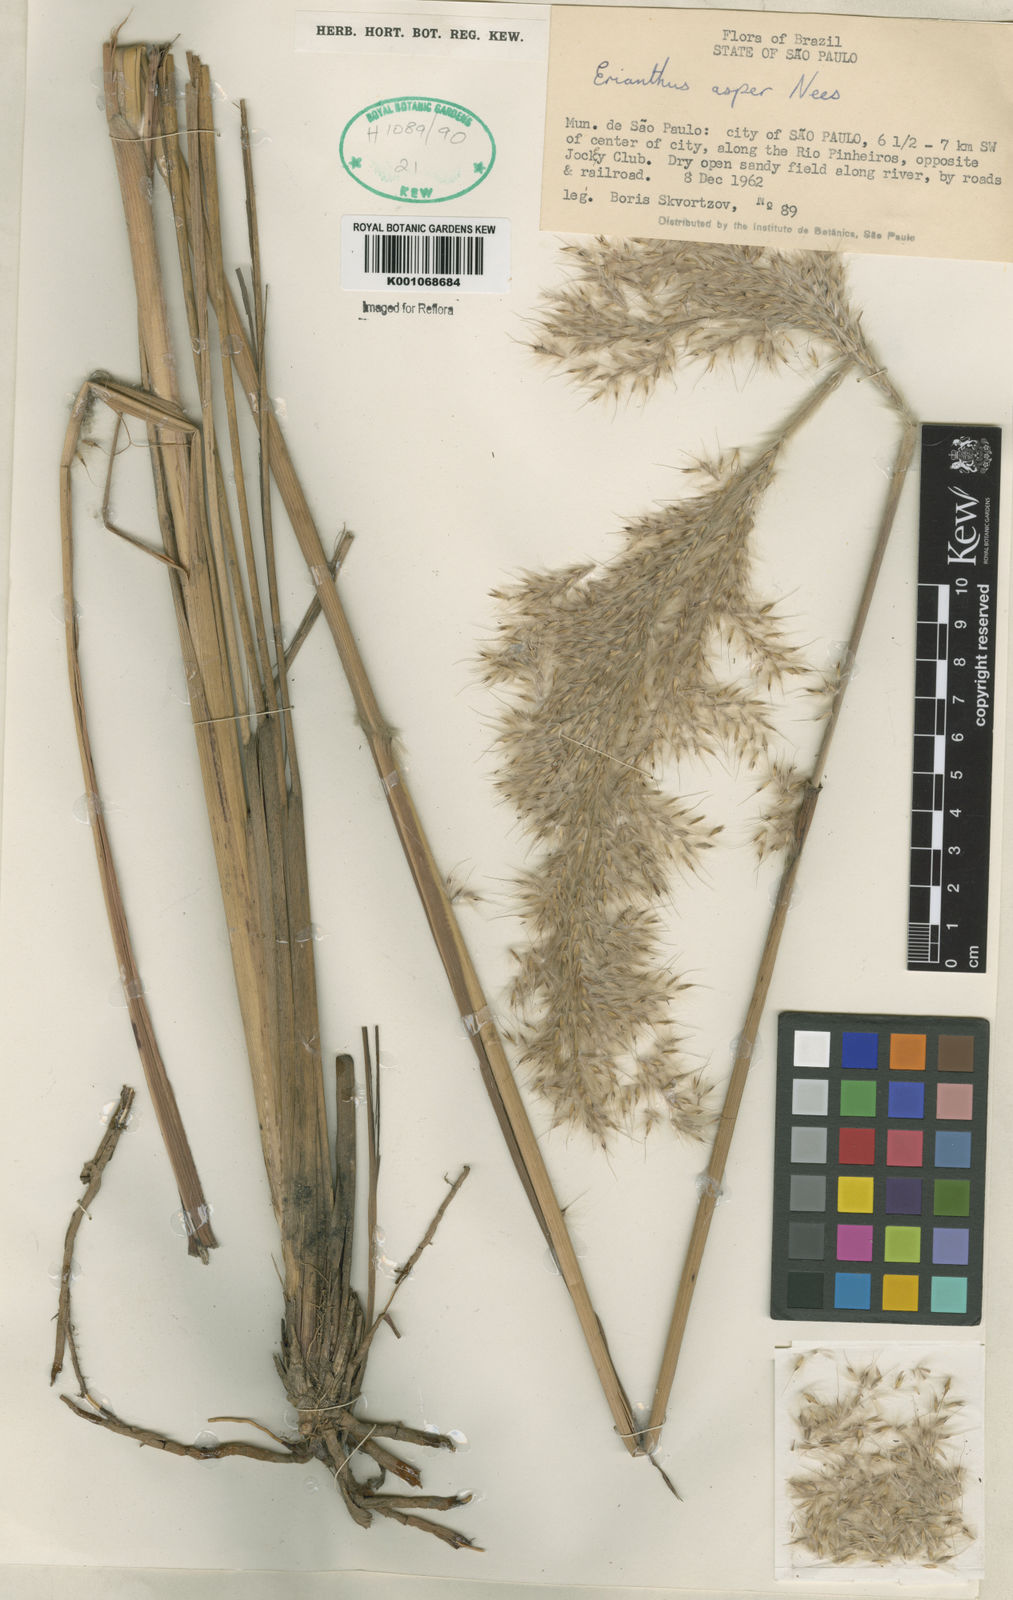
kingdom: Plantae
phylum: Tracheophyta
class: Liliopsida
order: Poales
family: Poaceae
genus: Erianthus
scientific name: Erianthus asper
